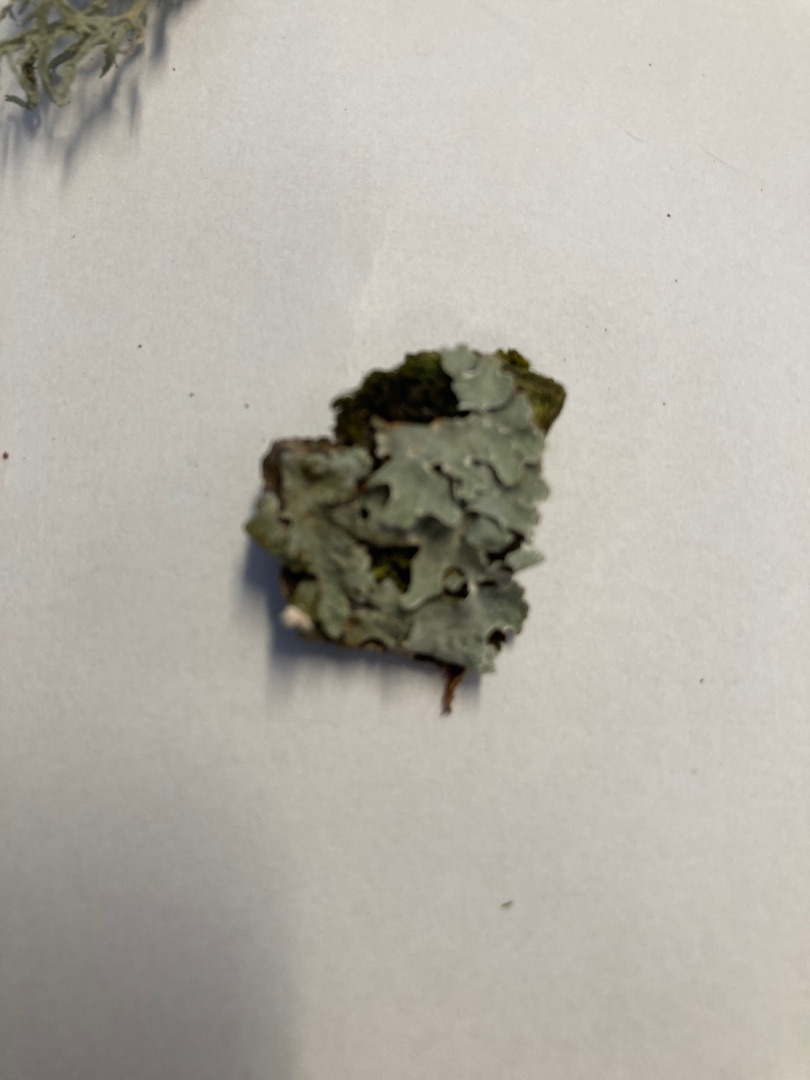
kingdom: Fungi
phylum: Ascomycota
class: Lecanoromycetes
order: Lecanorales
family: Parmeliaceae
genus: Parmelia
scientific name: Parmelia sulcata
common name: Rynket skållav
